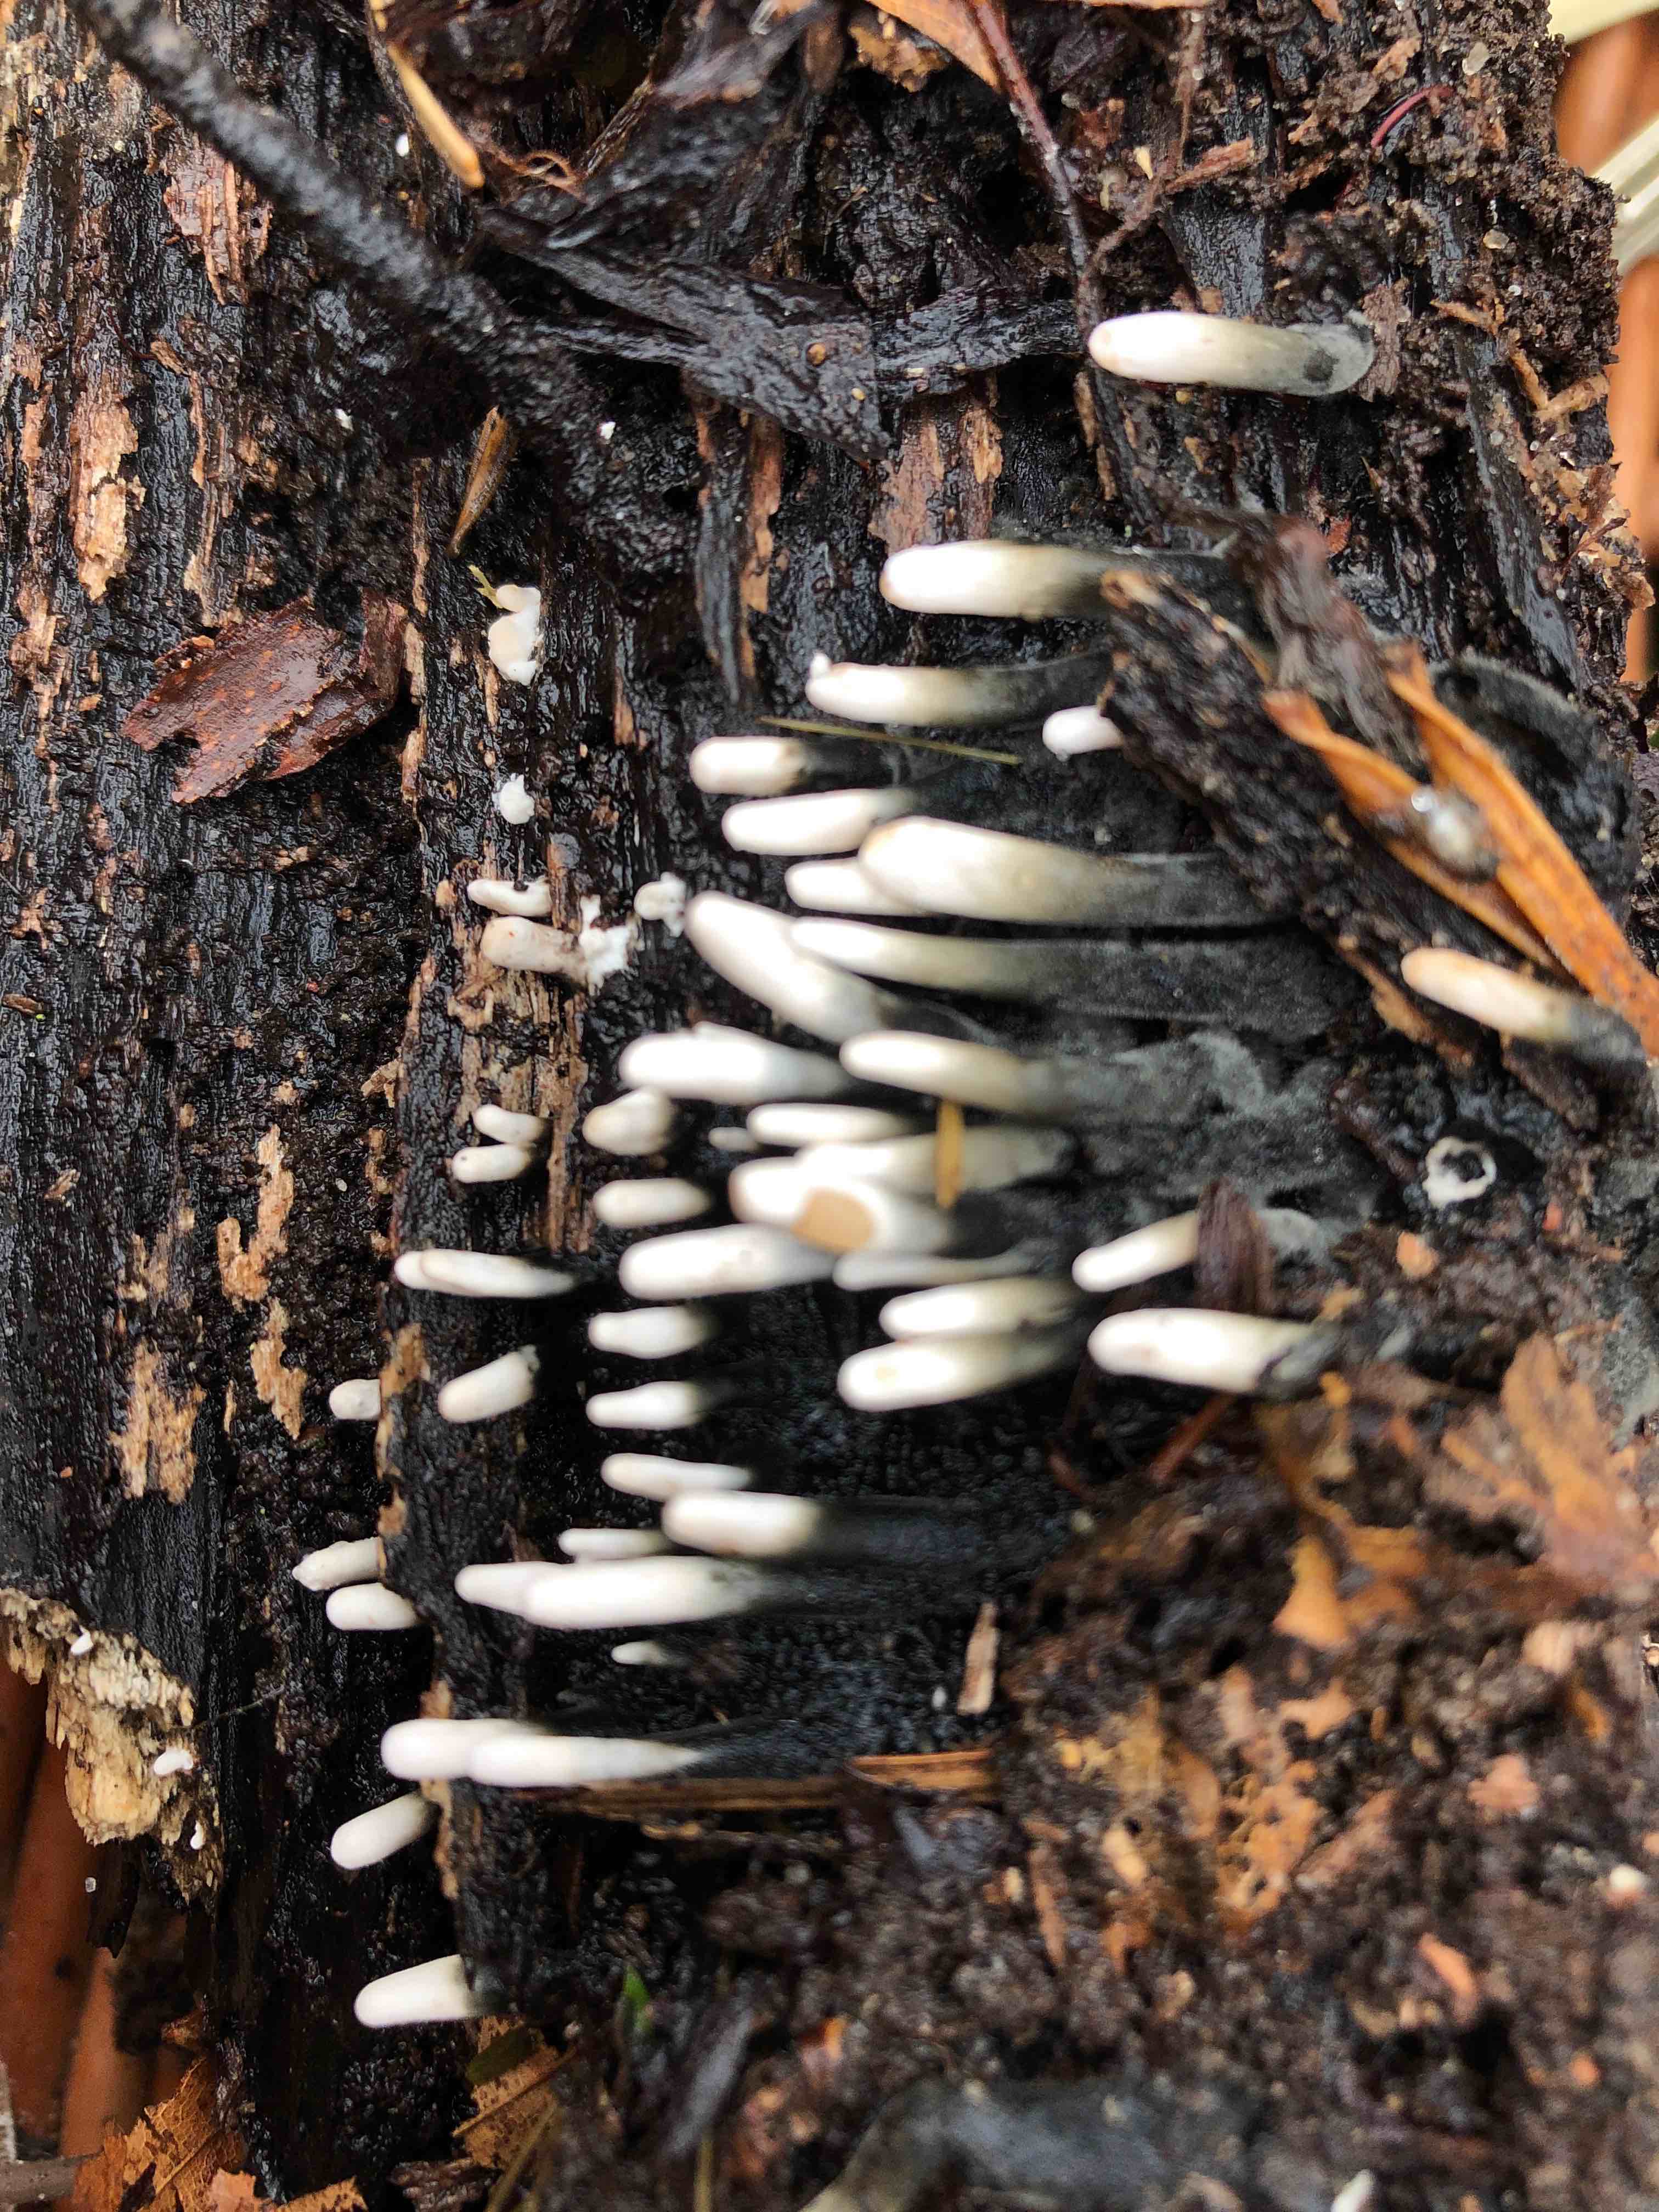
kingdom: Fungi
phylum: Ascomycota
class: Sordariomycetes
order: Xylariales
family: Xylariaceae
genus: Xylaria
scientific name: Xylaria hypoxylon
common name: grenet stødsvamp
